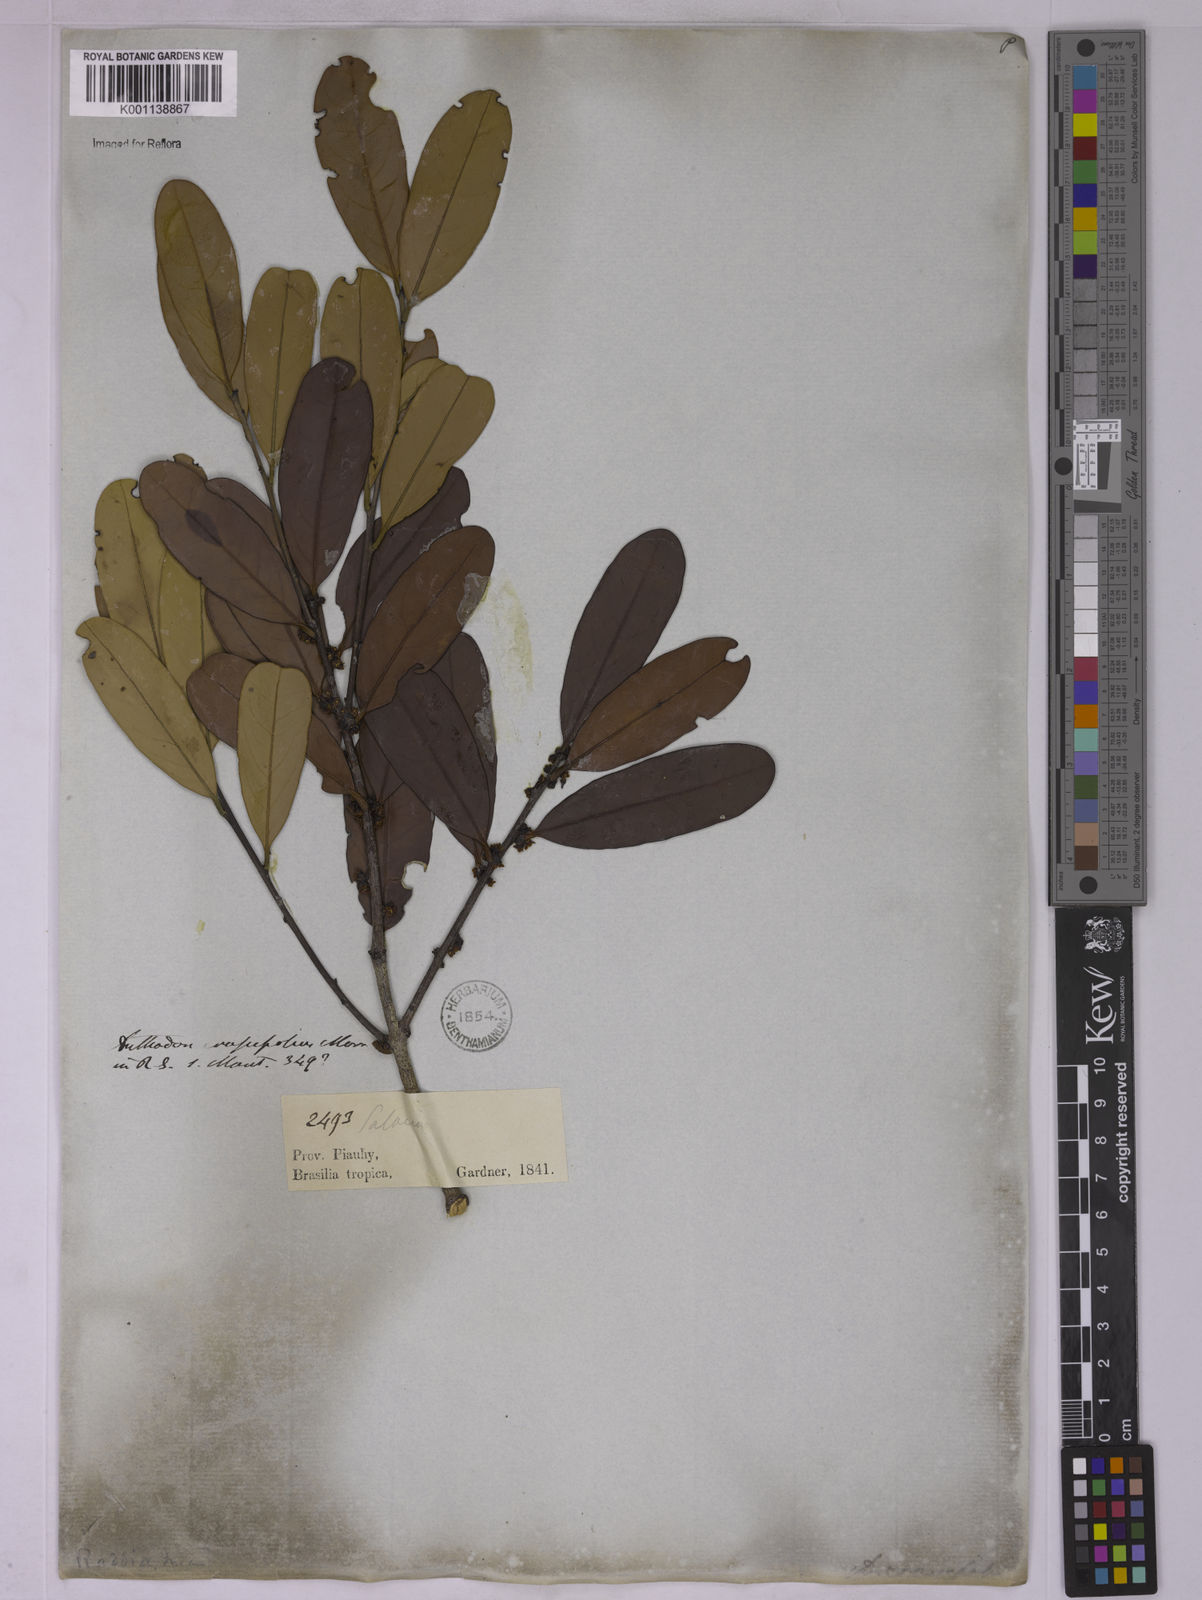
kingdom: Plantae
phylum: Tracheophyta
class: Magnoliopsida
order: Celastrales
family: Celastraceae
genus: Salacia
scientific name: Salacia crassifolia
